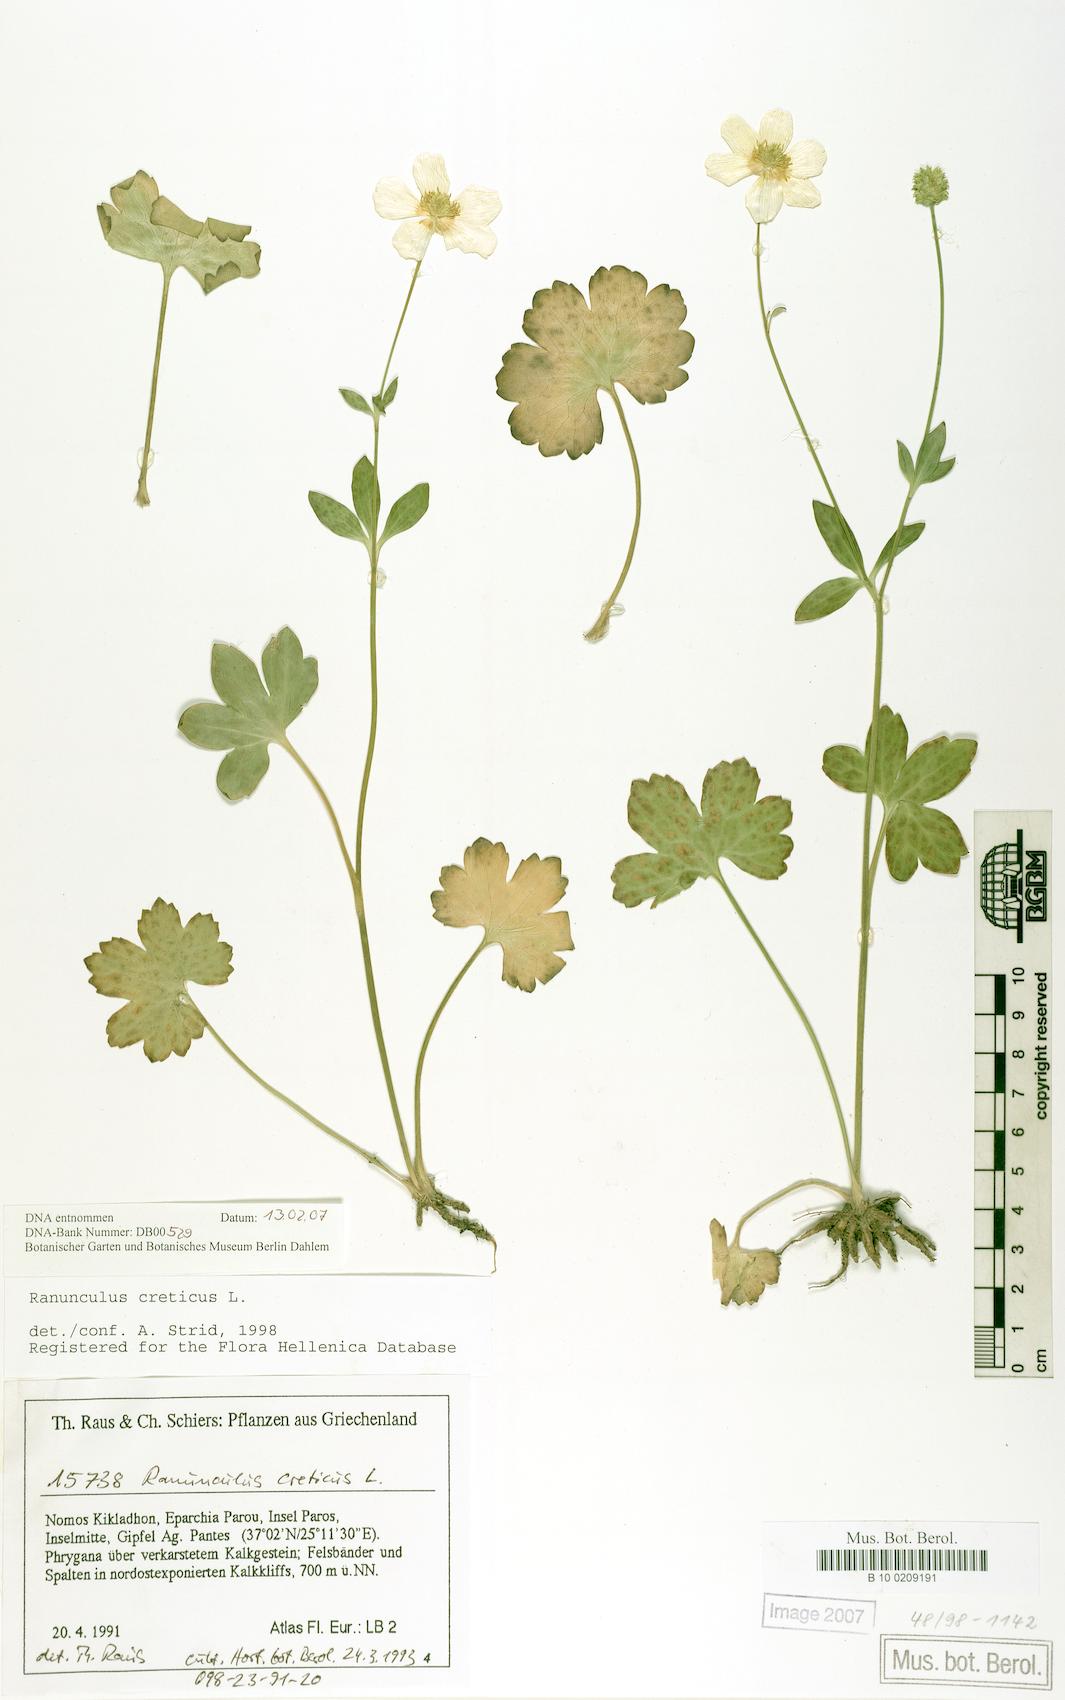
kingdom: Plantae
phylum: Tracheophyta
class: Magnoliopsida
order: Ranunculales
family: Ranunculaceae
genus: Ranunculus
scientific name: Ranunculus creticus
